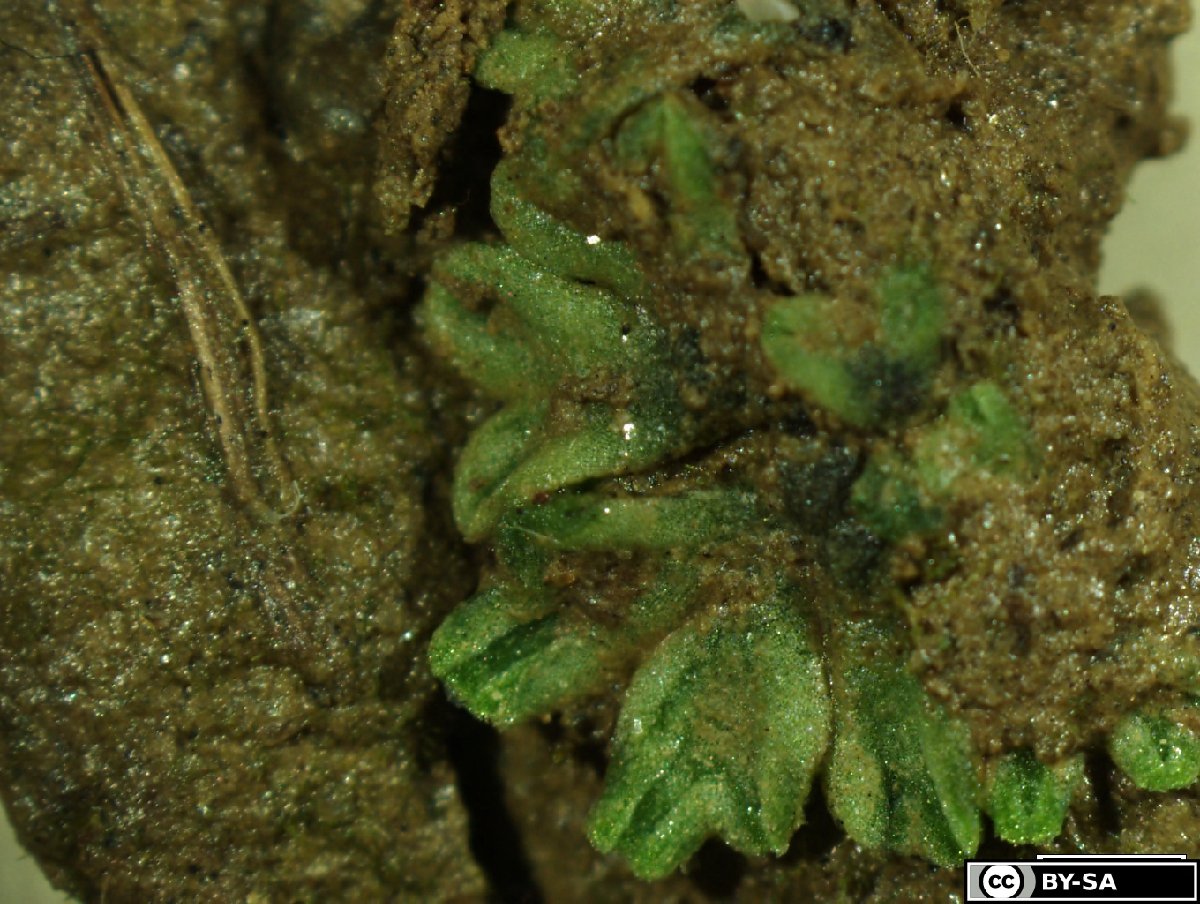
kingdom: Plantae
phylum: Marchantiophyta
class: Marchantiopsida
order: Marchantiales
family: Ricciaceae
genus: Riccia
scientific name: Riccia bifurca
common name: Lizard crystalwort
